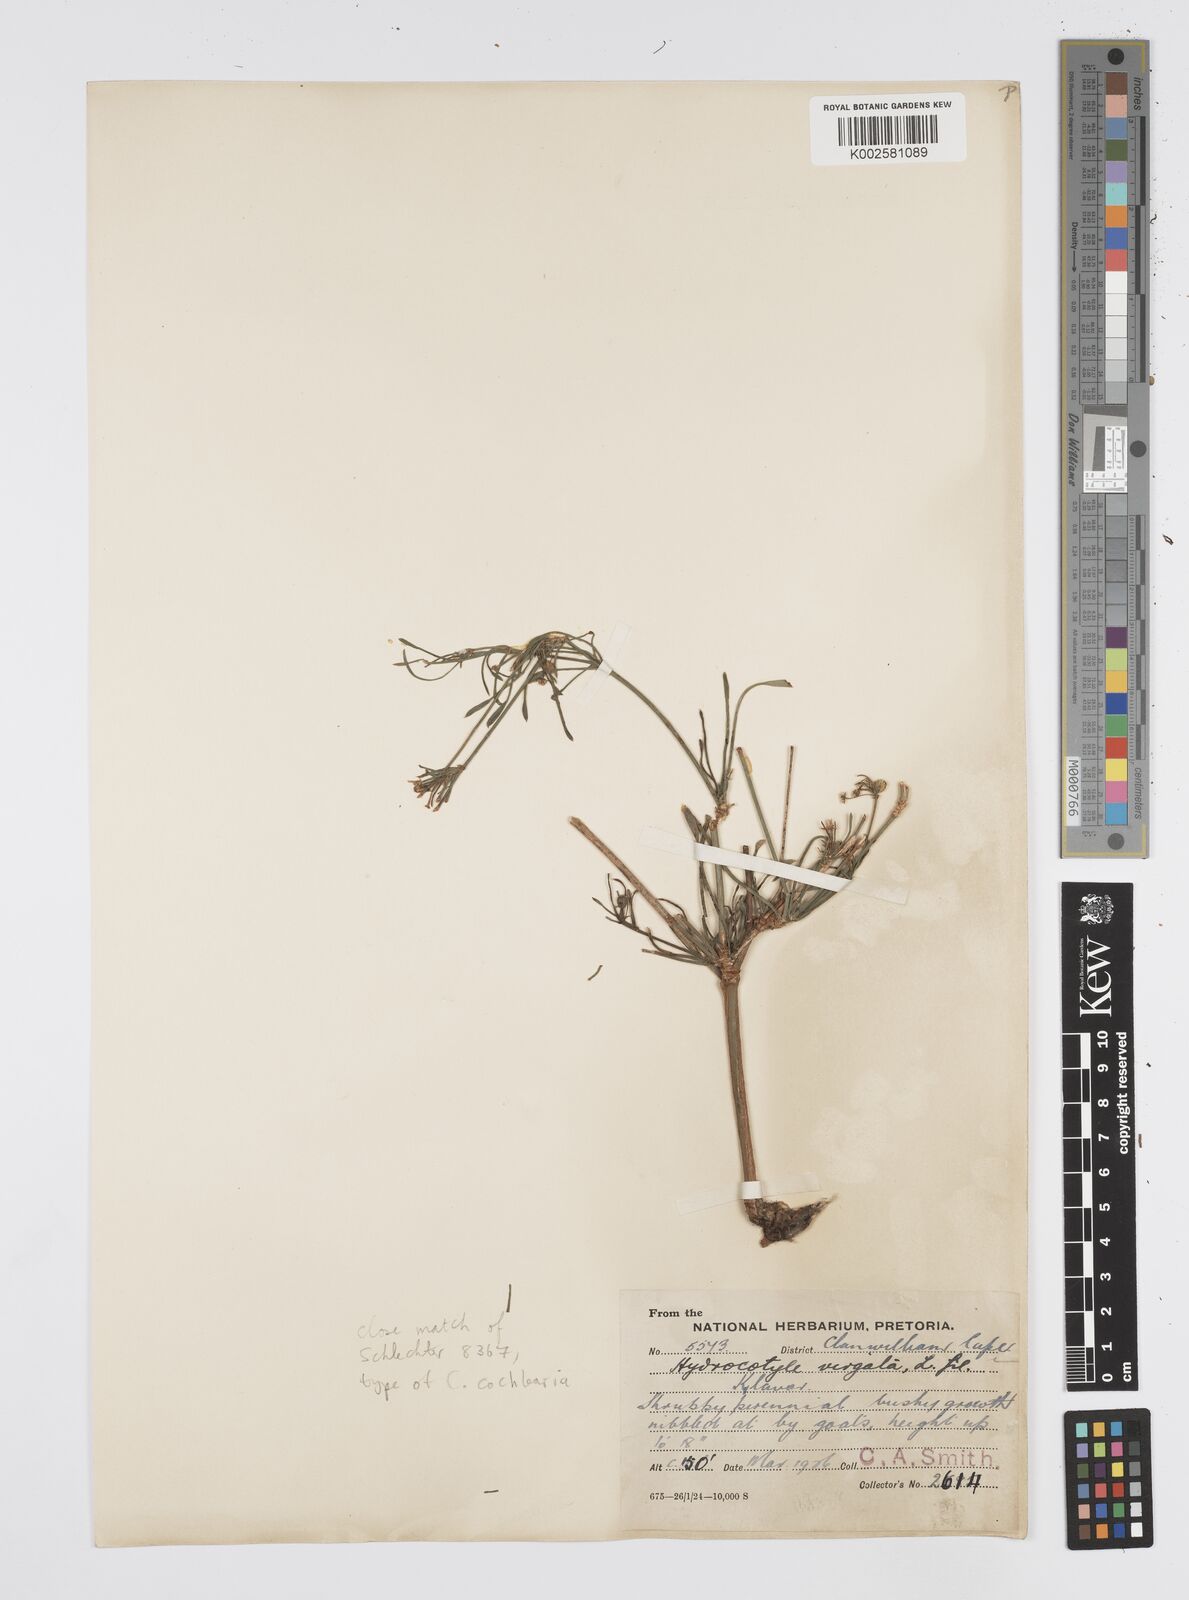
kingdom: Plantae
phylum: Tracheophyta
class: Magnoliopsida
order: Apiales
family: Apiaceae
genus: Centella
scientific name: Centella cochlearia
